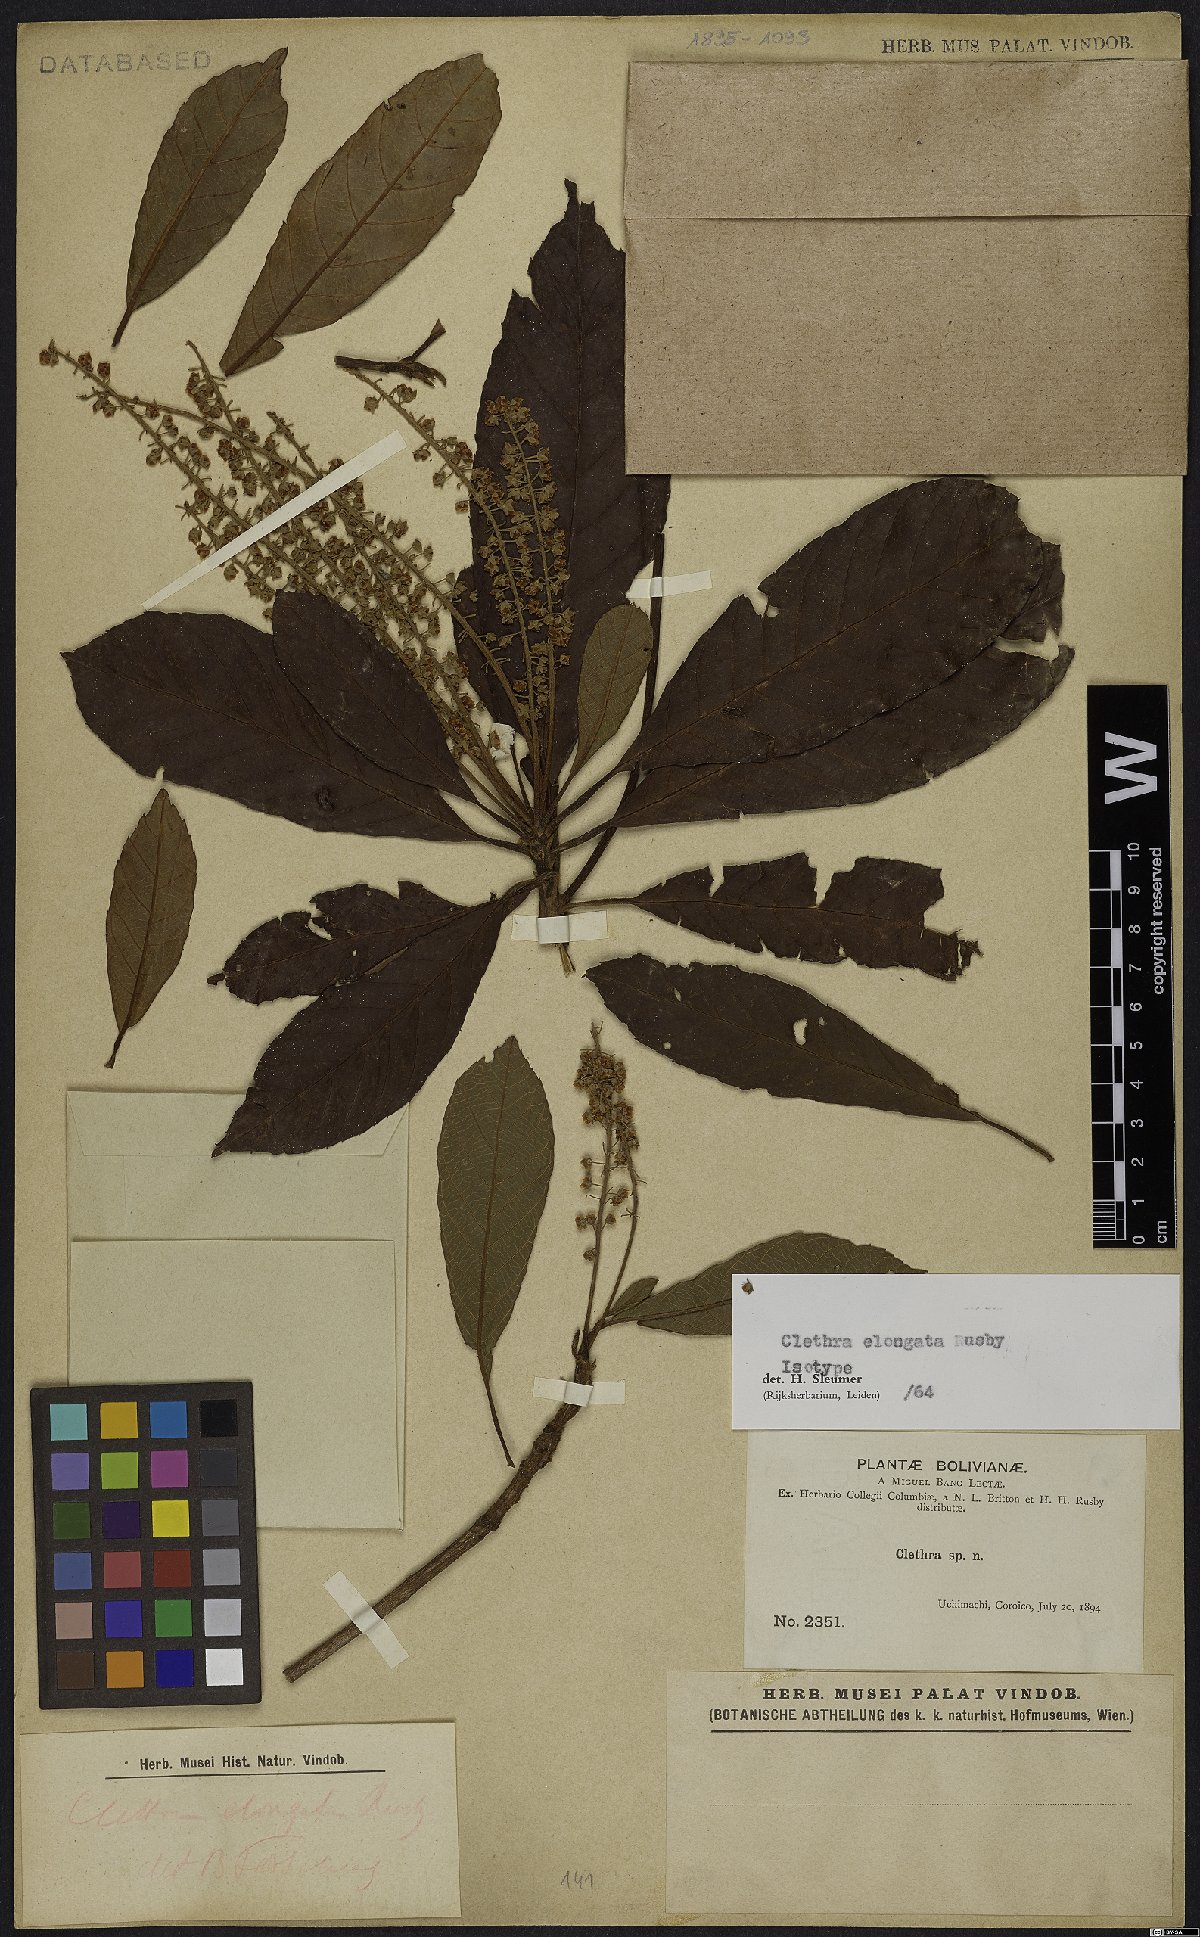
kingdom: Plantae
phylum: Tracheophyta
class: Magnoliopsida
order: Ericales
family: Clethraceae
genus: Clethra
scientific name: Clethra elongata
